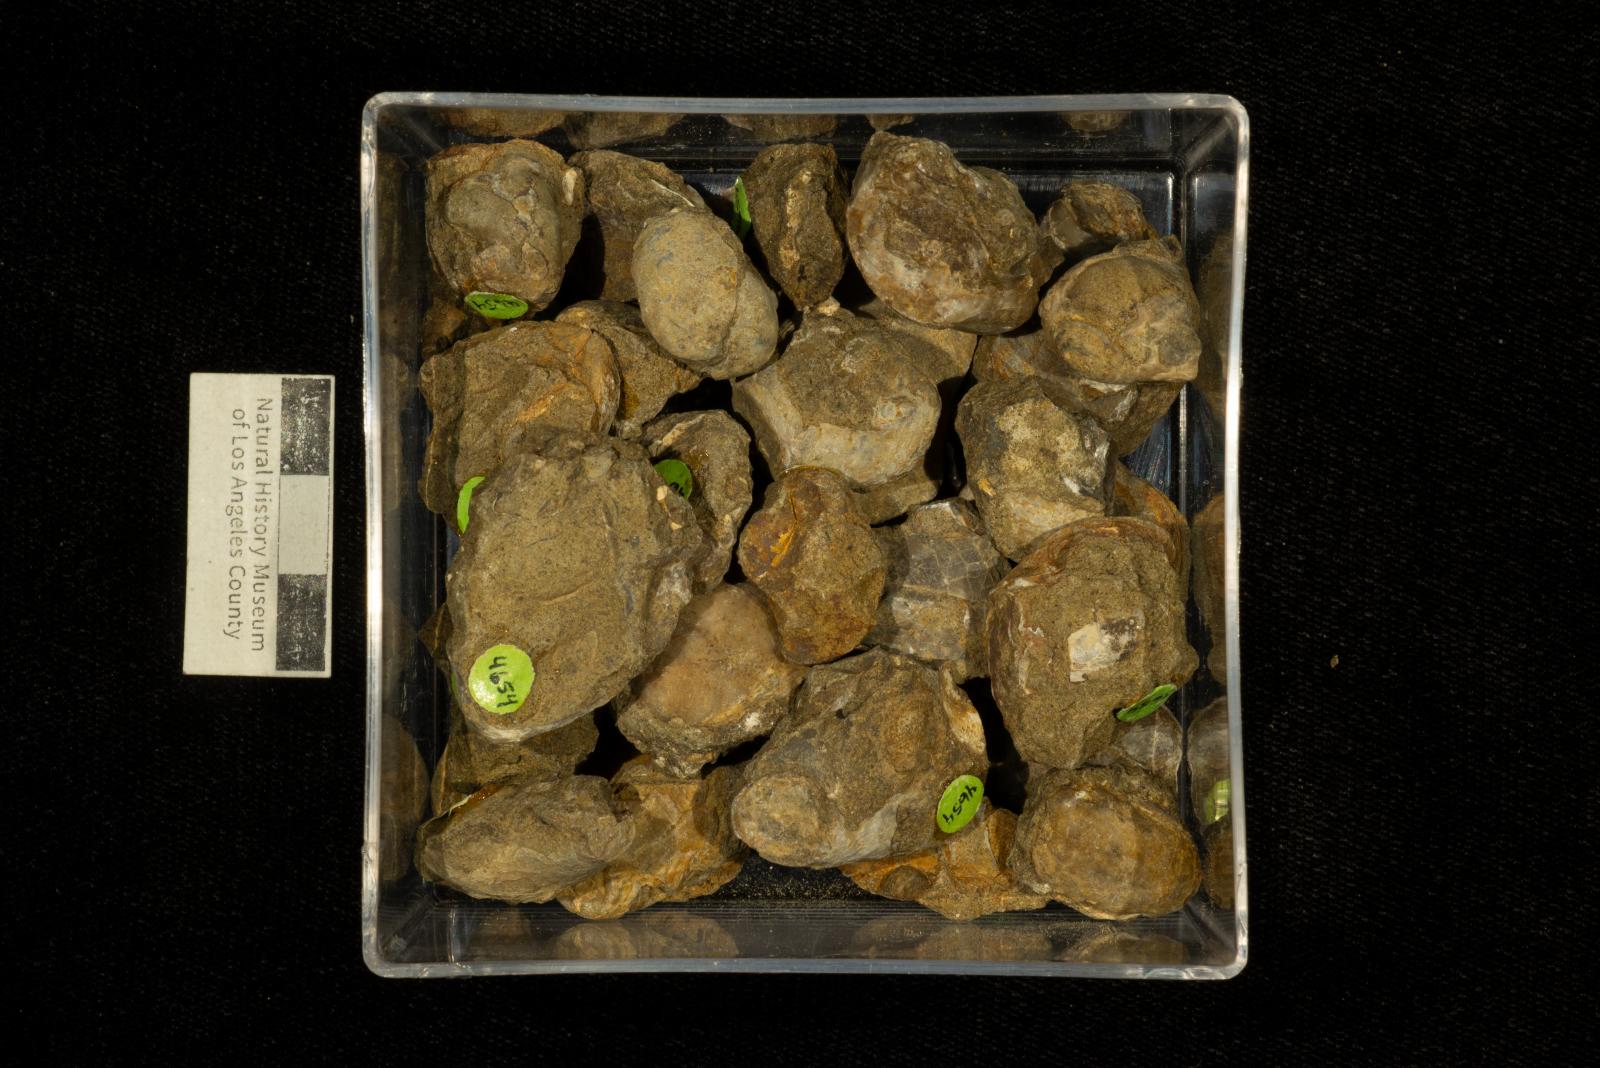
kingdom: Animalia
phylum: Mollusca
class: Bivalvia
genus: Phygraea
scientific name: Phygraea
